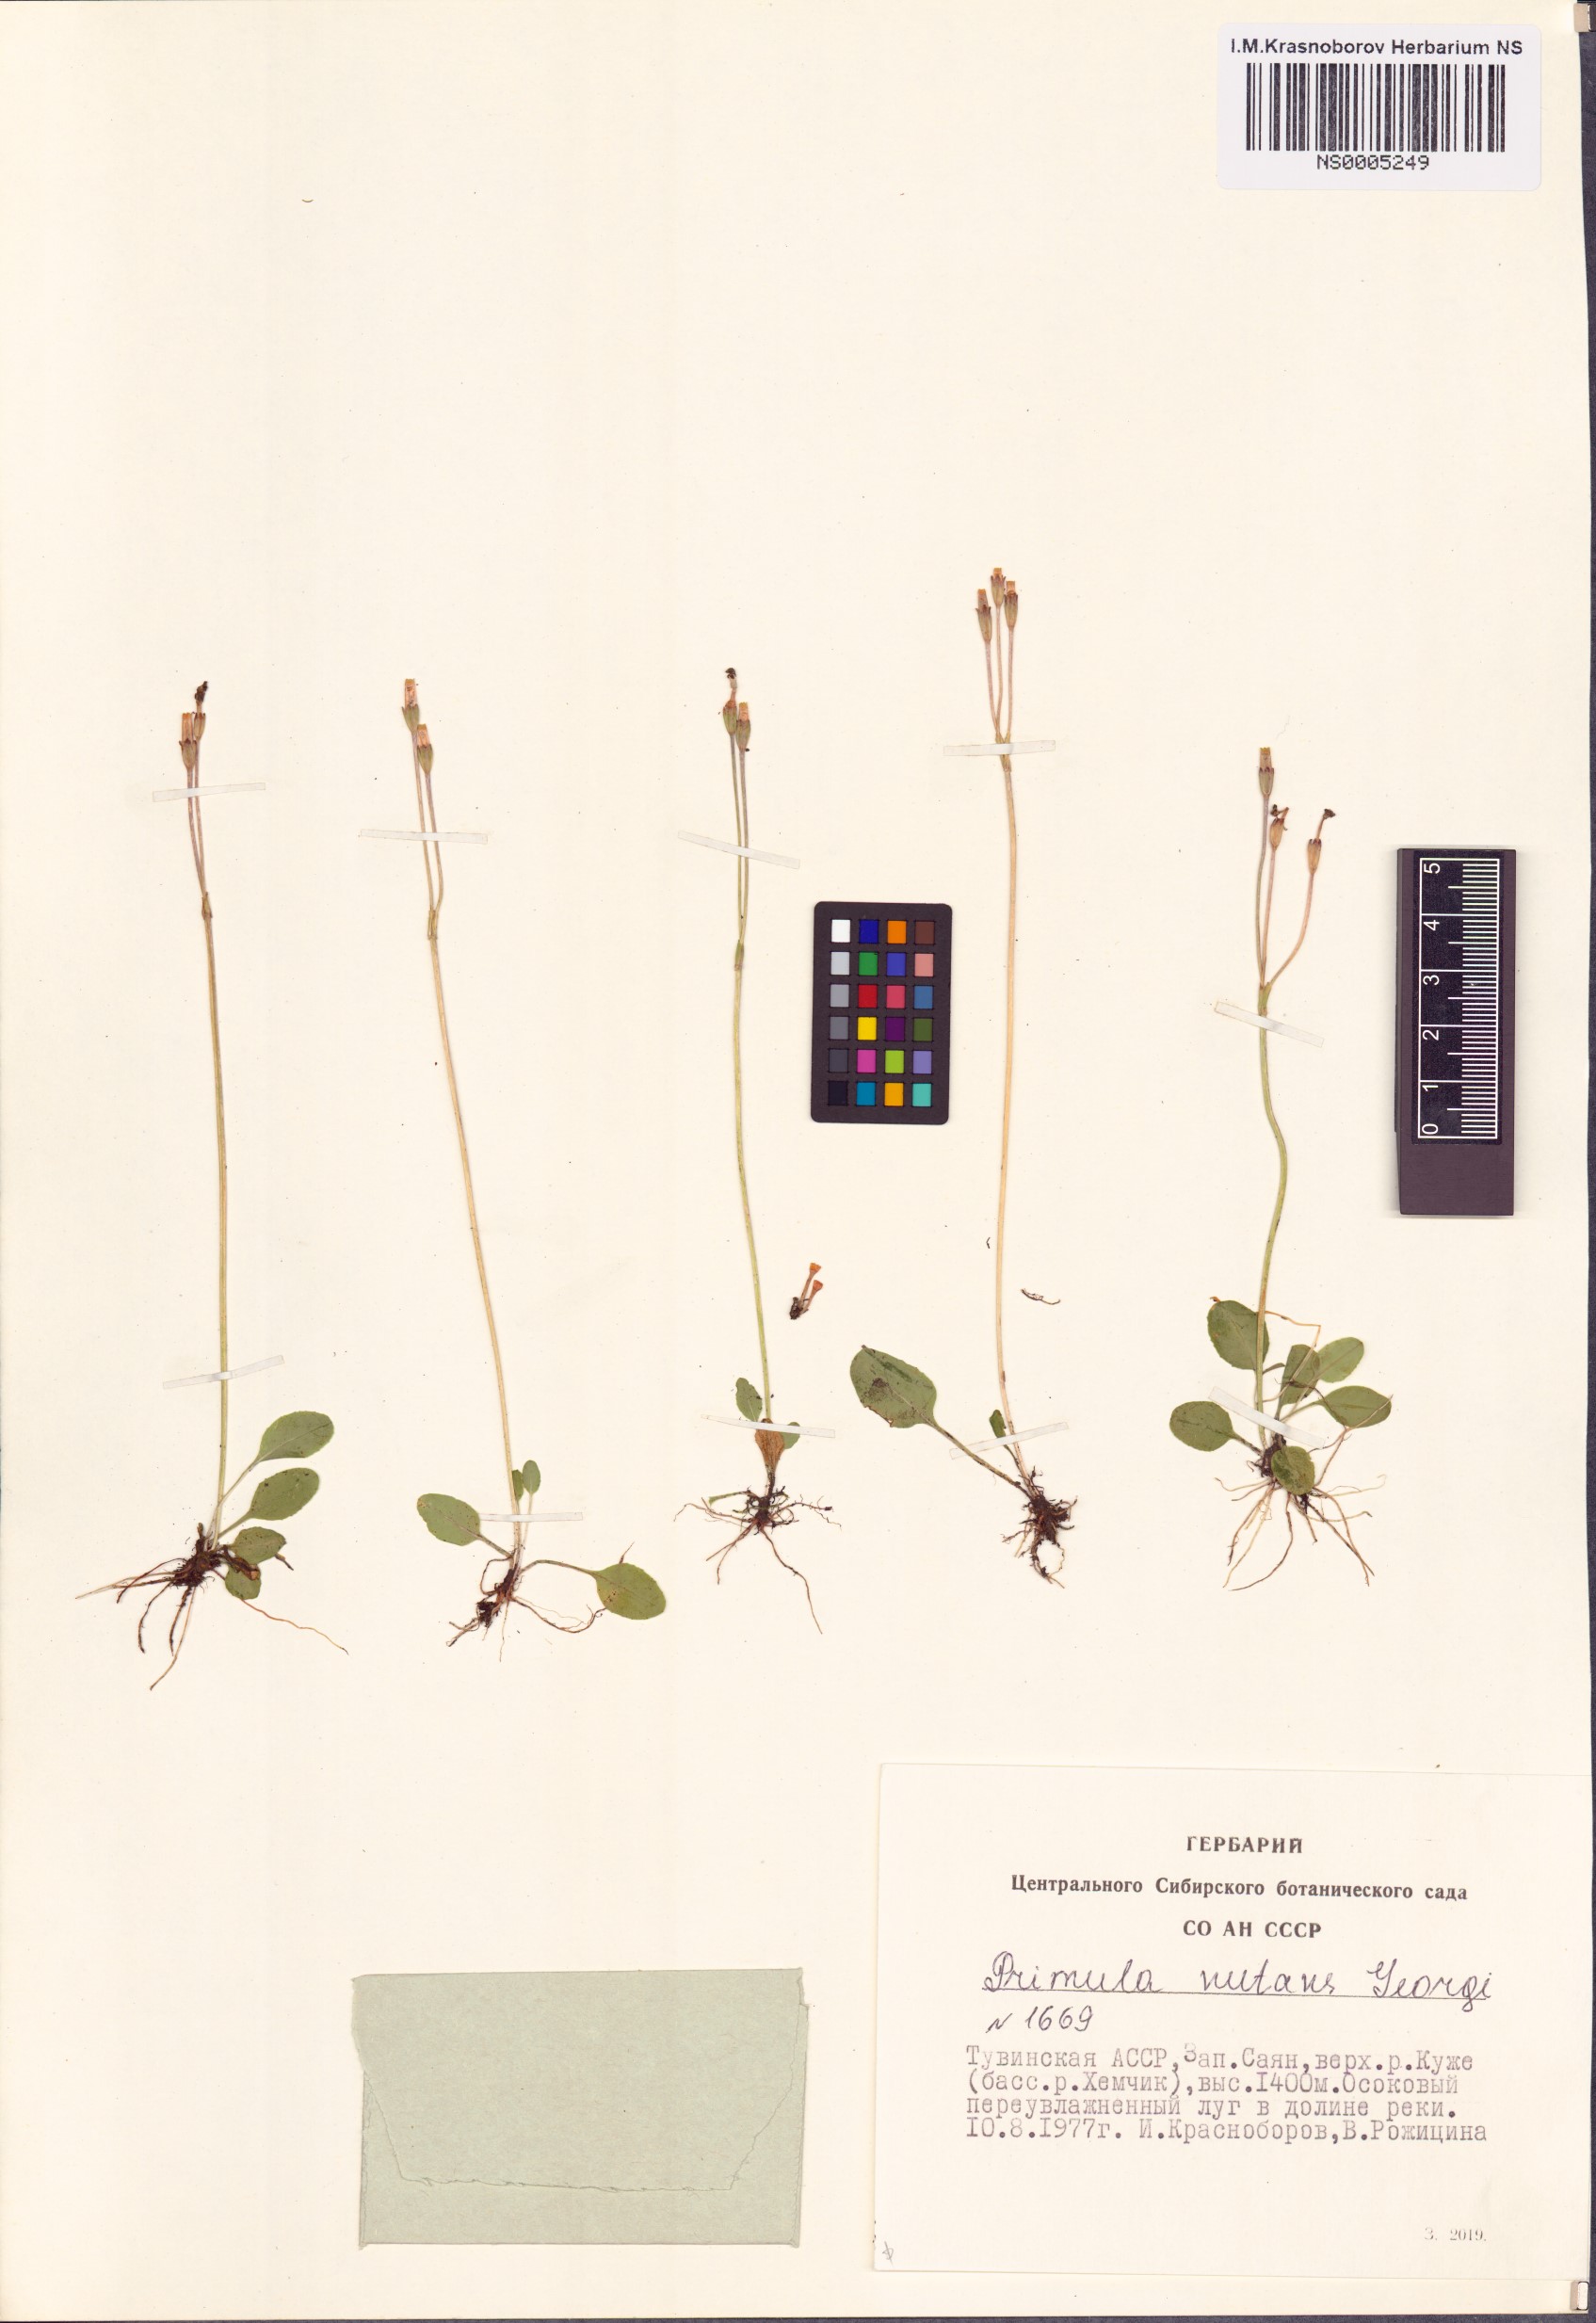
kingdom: Plantae
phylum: Tracheophyta
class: Magnoliopsida
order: Ericales
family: Primulaceae
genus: Primula
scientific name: Primula nutans
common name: Siberian primrose
